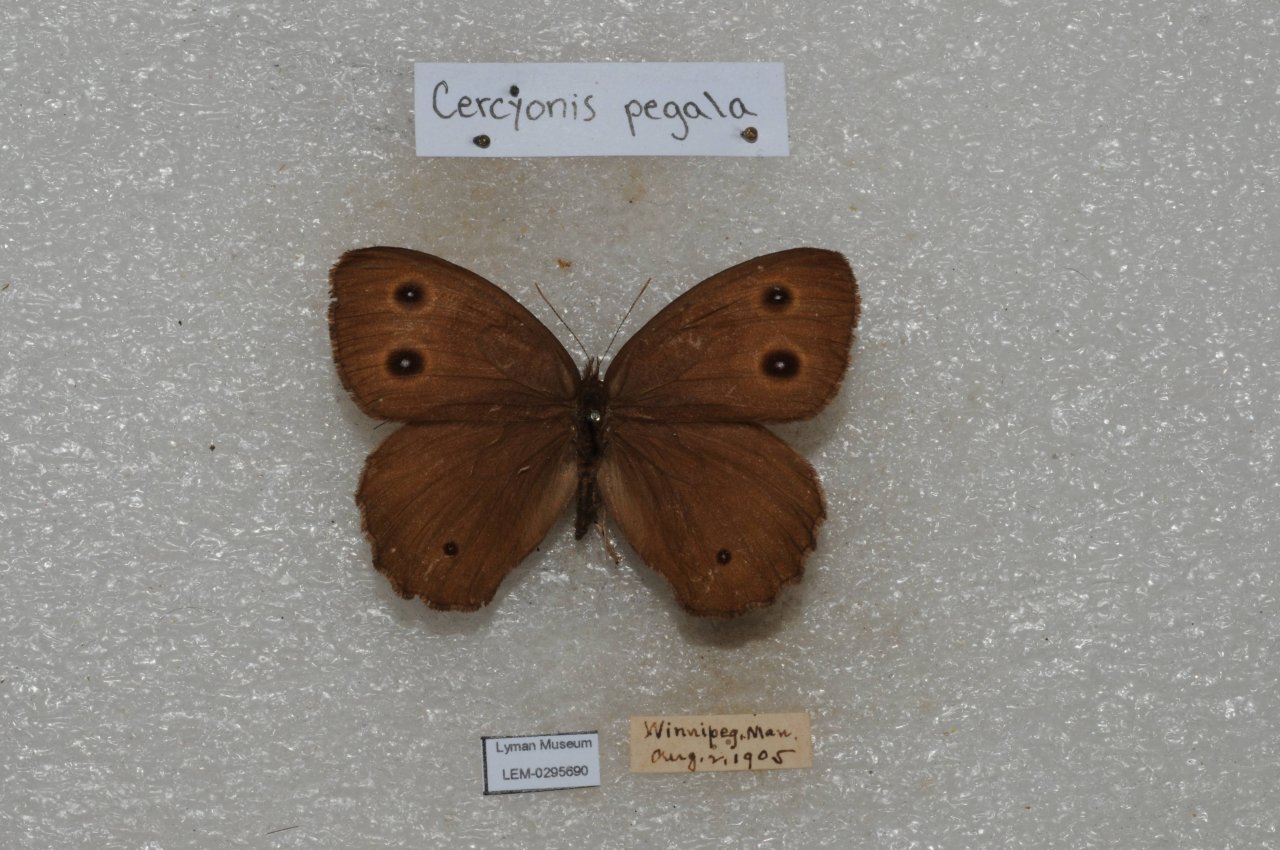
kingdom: Animalia
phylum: Arthropoda
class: Insecta
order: Lepidoptera
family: Nymphalidae
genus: Cercyonis
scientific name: Cercyonis pegala
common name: Common Wood-Nymph
